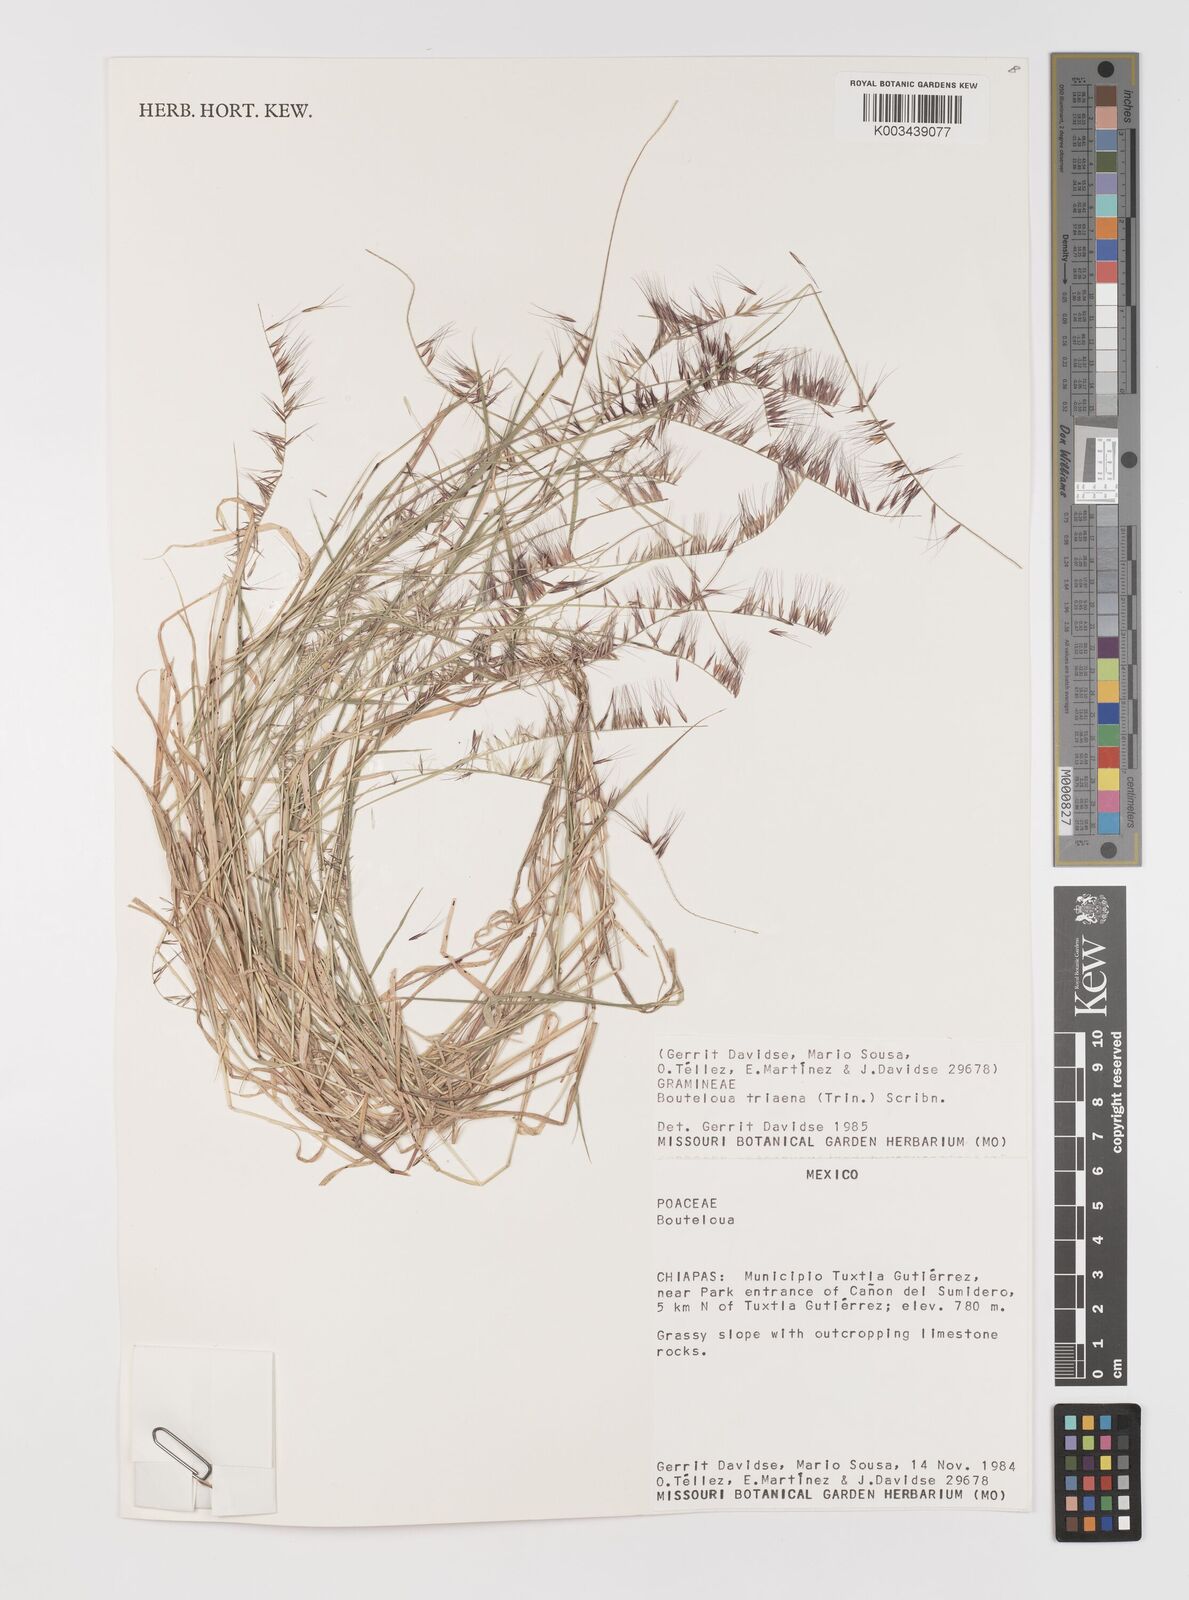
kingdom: Plantae
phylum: Tracheophyta
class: Liliopsida
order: Poales
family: Poaceae
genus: Bouteloua
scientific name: Bouteloua triaena
